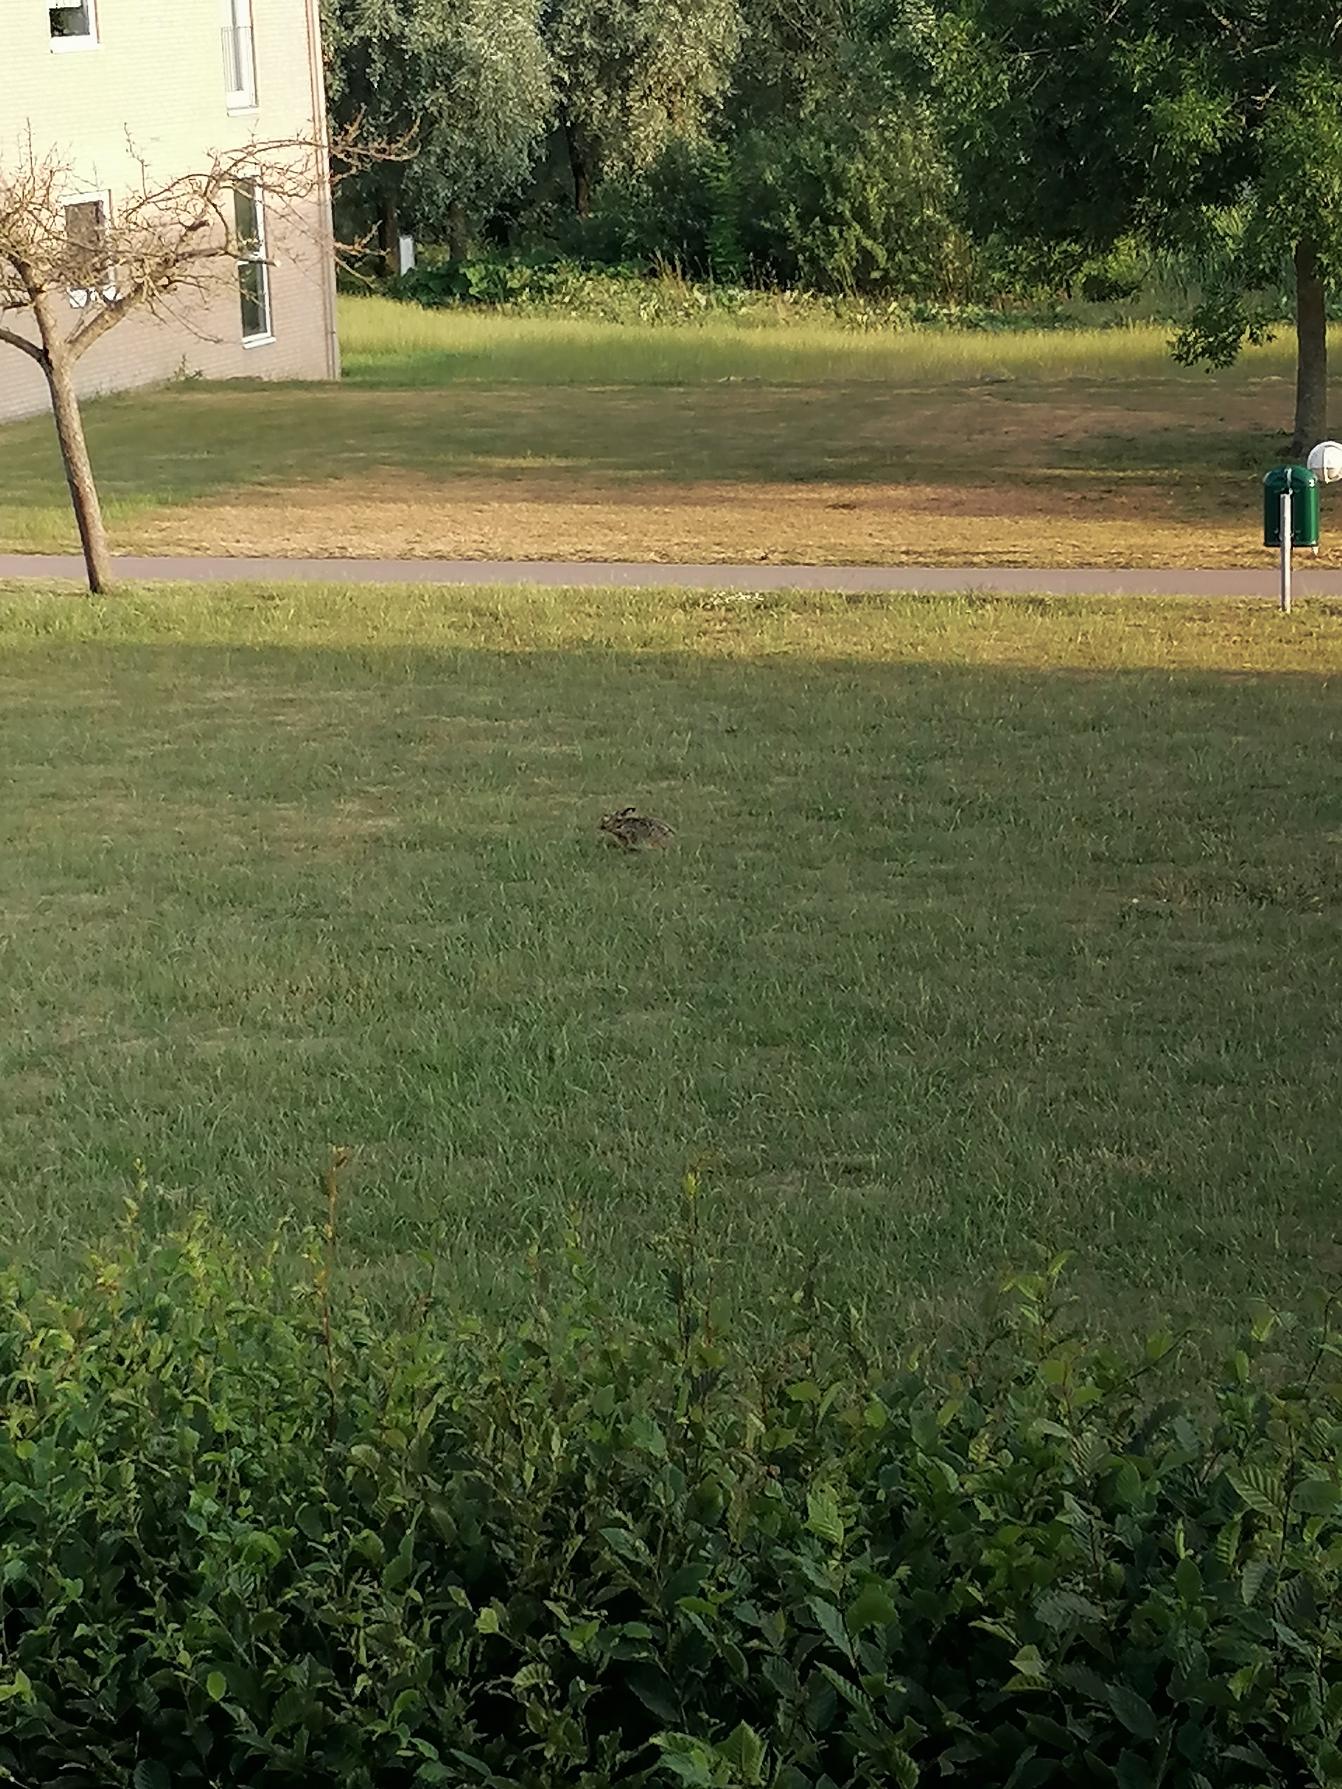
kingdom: Animalia
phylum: Chordata
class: Mammalia
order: Lagomorpha
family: Leporidae
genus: Lepus
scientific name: Lepus europaeus
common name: Hare
